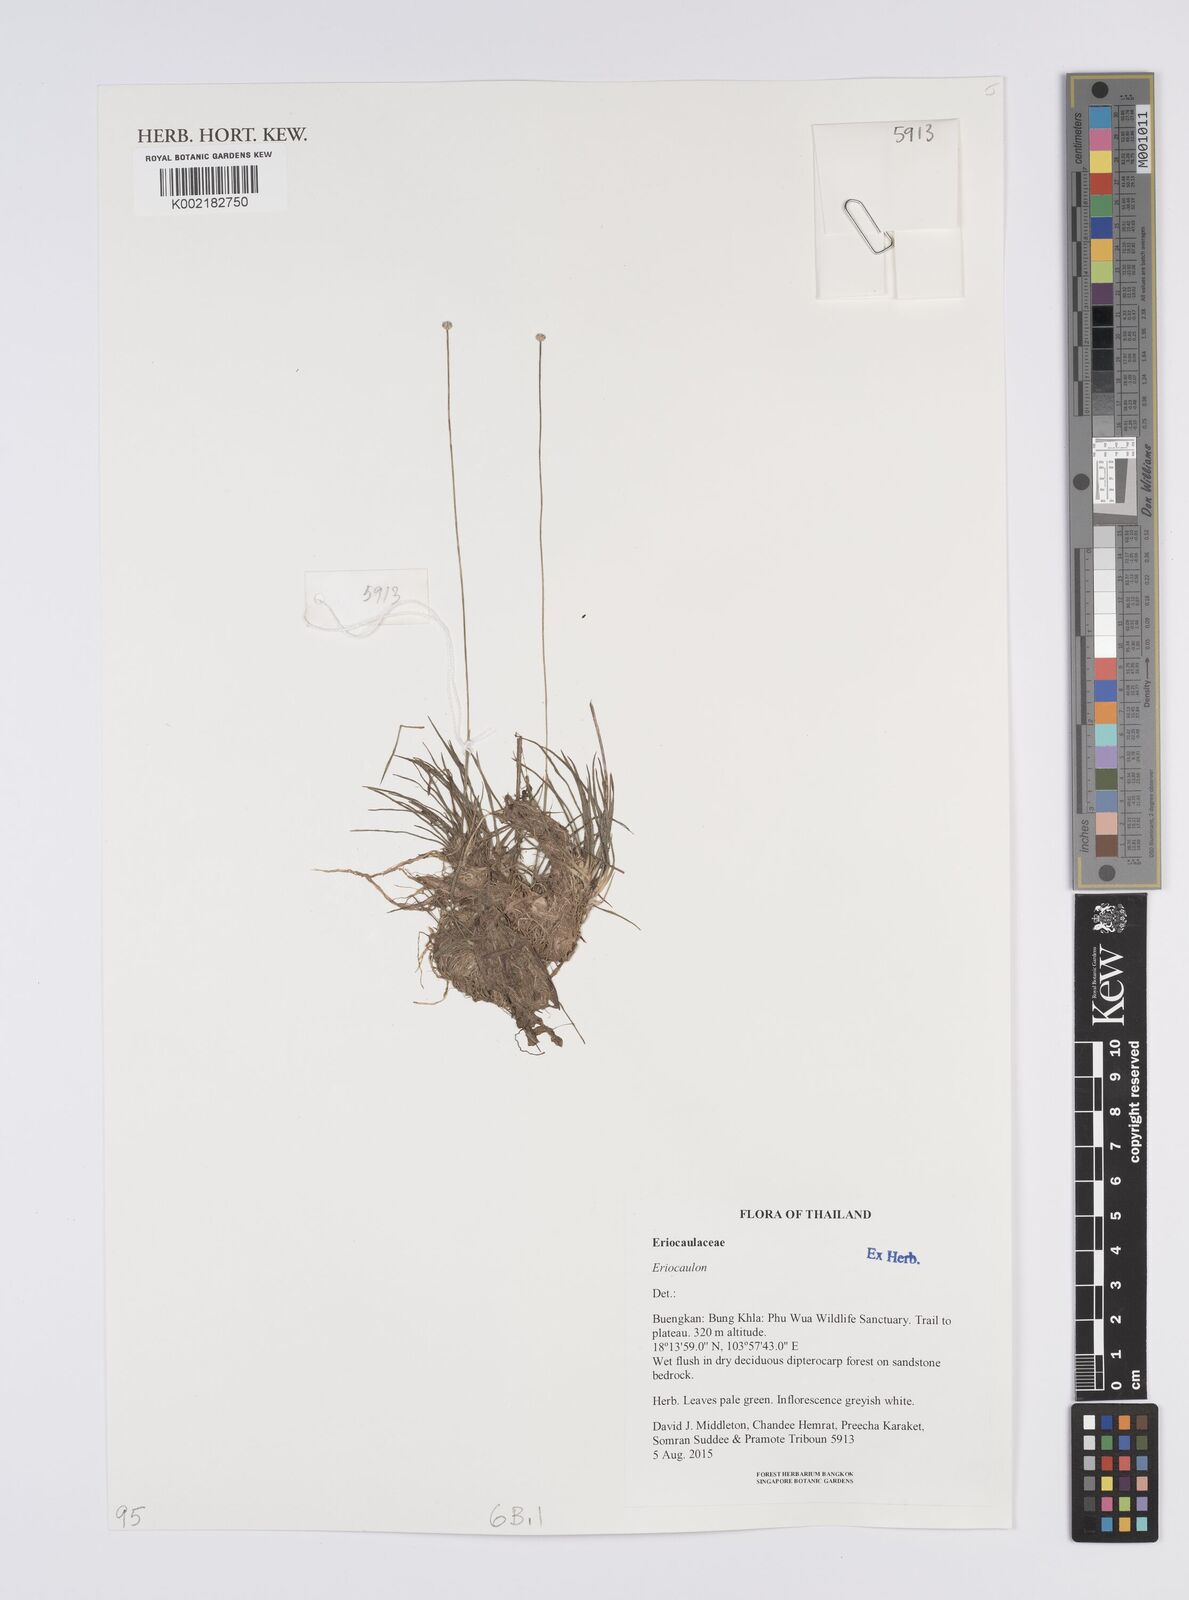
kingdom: Plantae
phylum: Tracheophyta
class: Liliopsida
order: Poales
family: Eriocaulaceae
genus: Eriocaulon
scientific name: Eriocaulon
